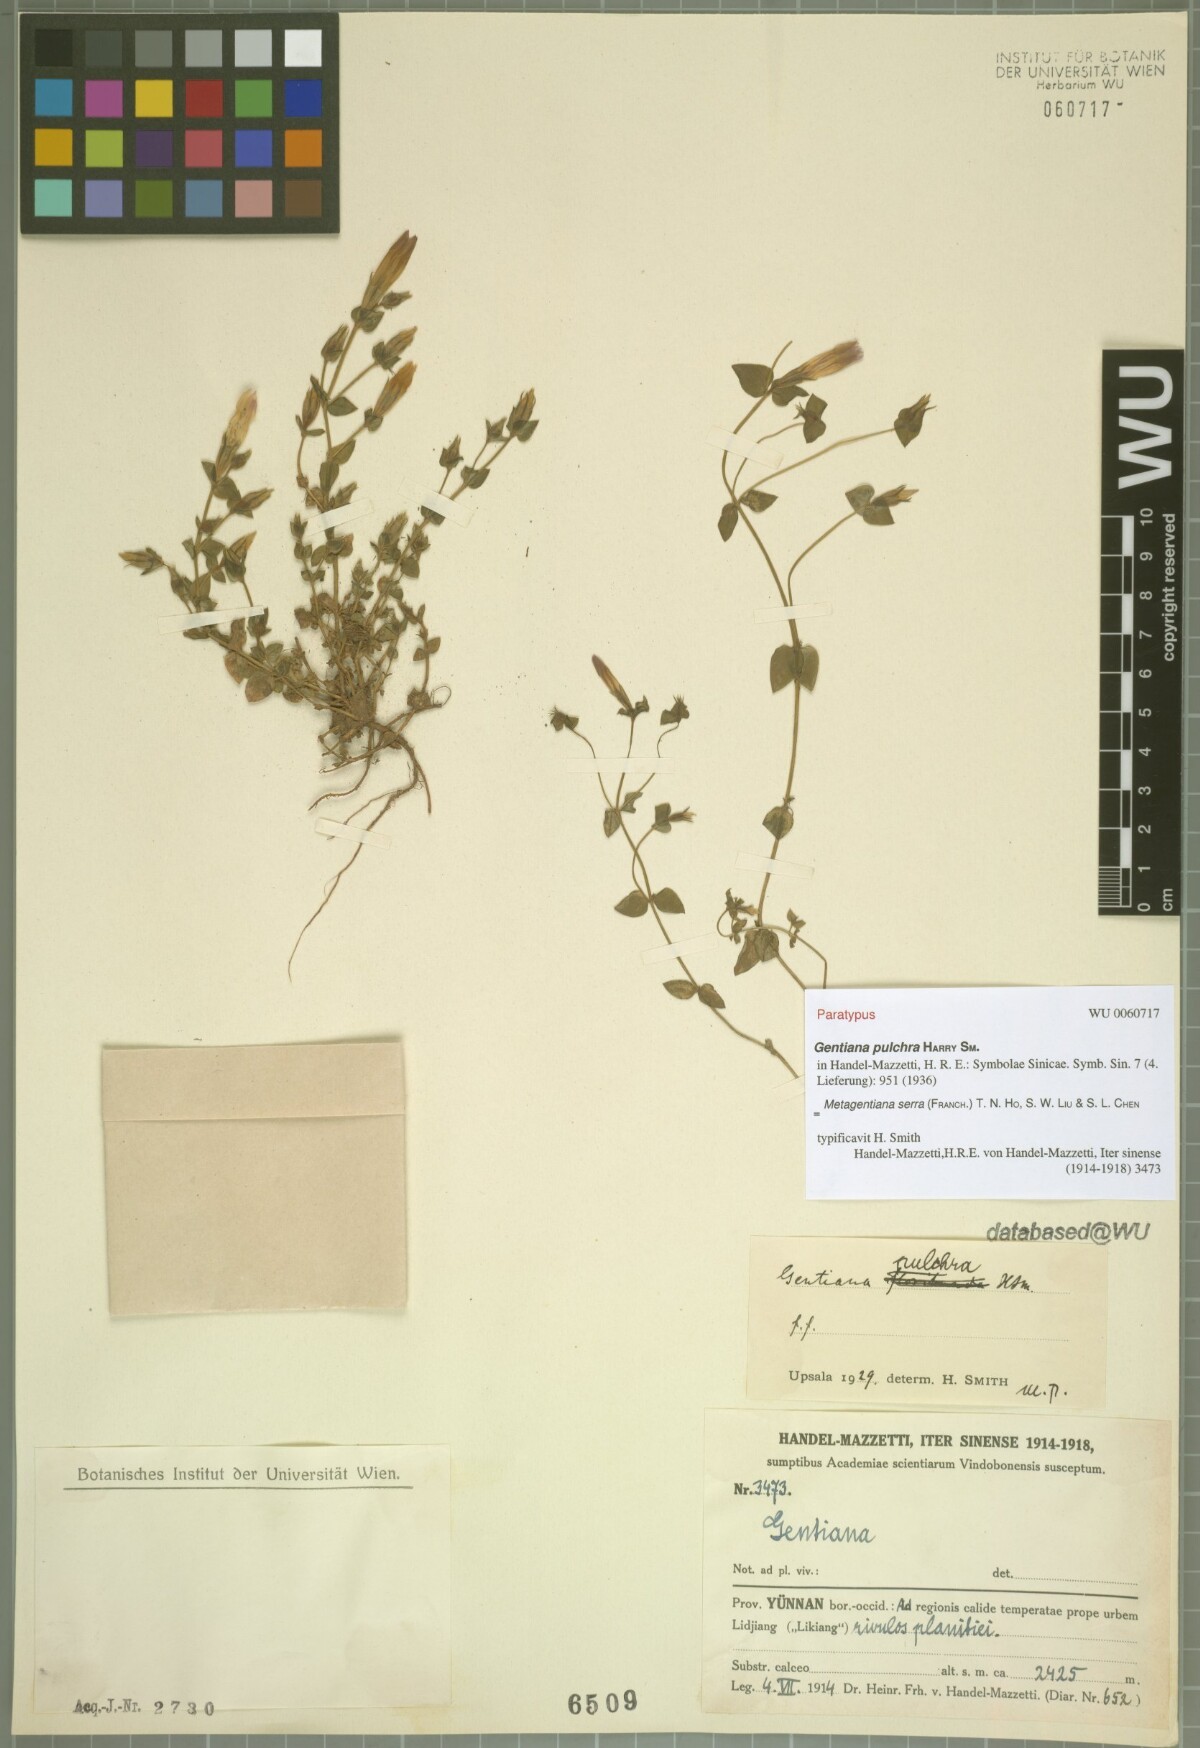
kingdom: Plantae
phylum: Tracheophyta
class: Magnoliopsida
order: Gentianales
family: Gentianaceae
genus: Metagentiana
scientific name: Metagentiana serra
